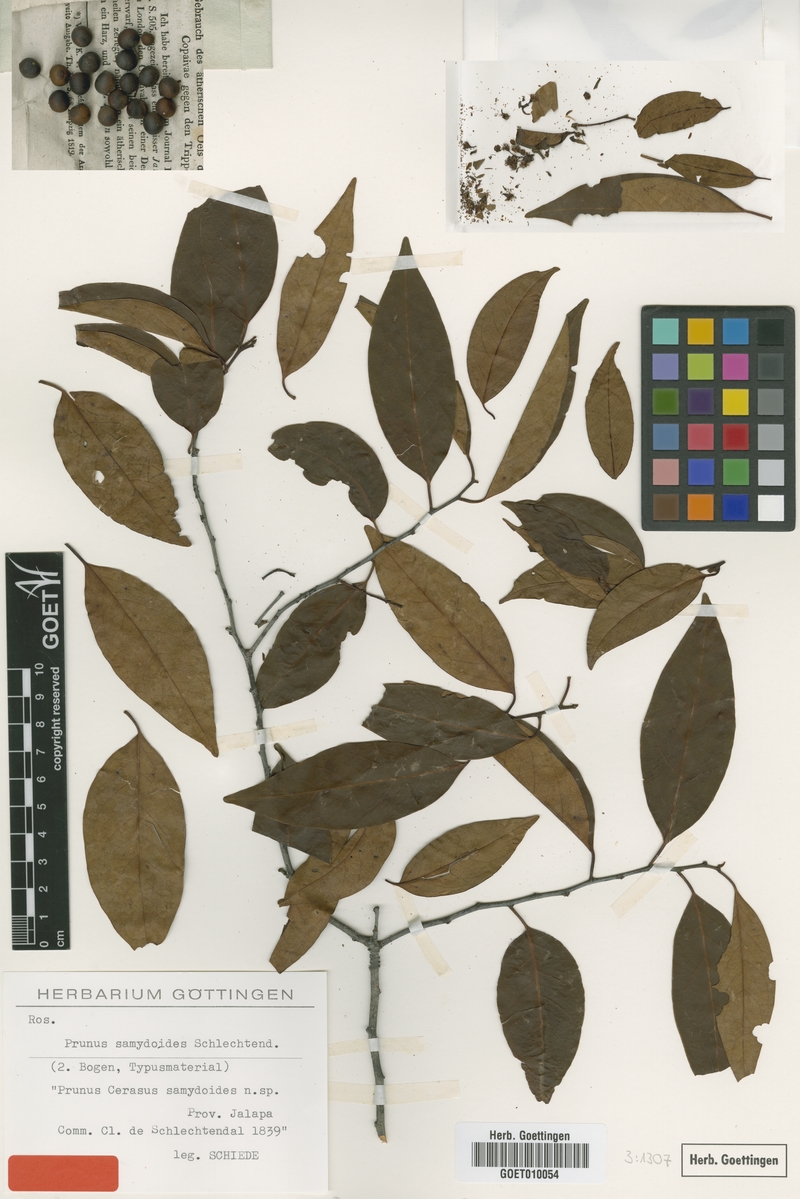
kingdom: Plantae
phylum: Tracheophyta
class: Magnoliopsida
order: Rosales
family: Rosaceae
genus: Prunus
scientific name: Prunus samydoides
